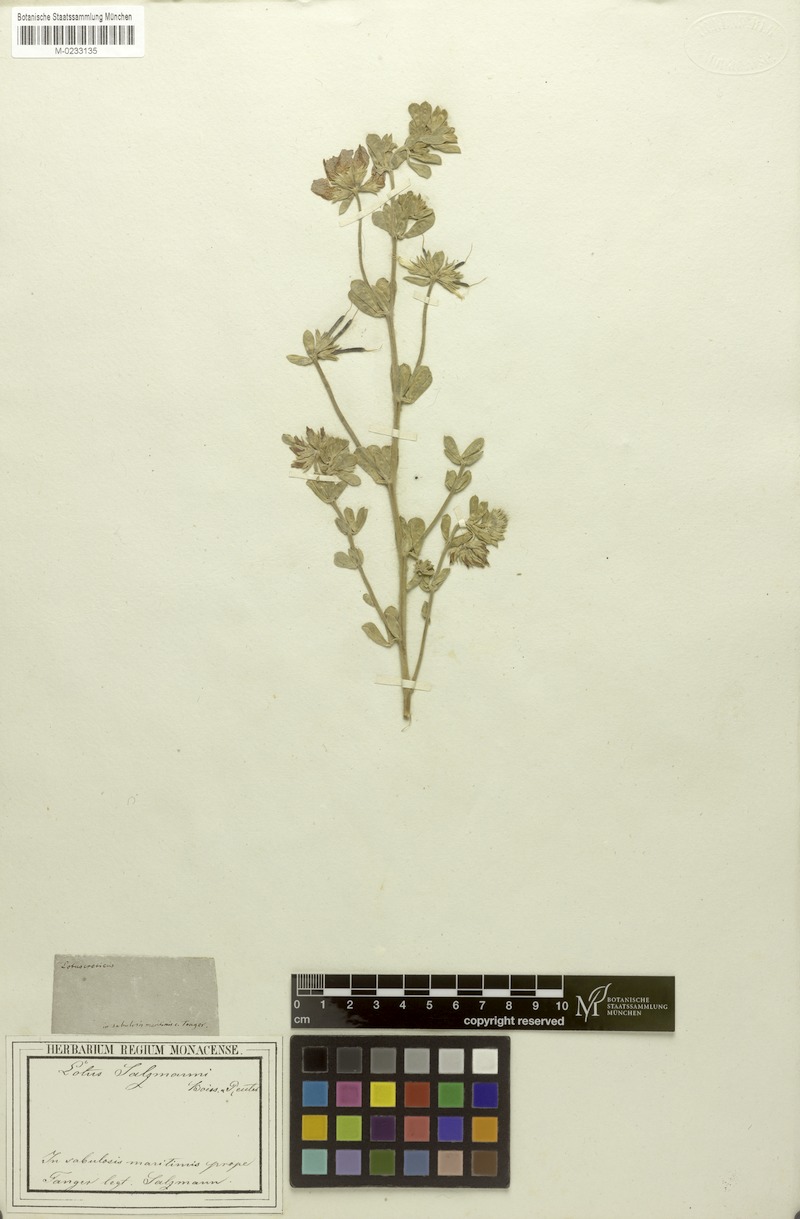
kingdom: Plantae
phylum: Tracheophyta
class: Magnoliopsida
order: Fabales
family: Fabaceae
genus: Lotus
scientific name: Lotus creticus
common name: Cretan bird's-foot trefoil
